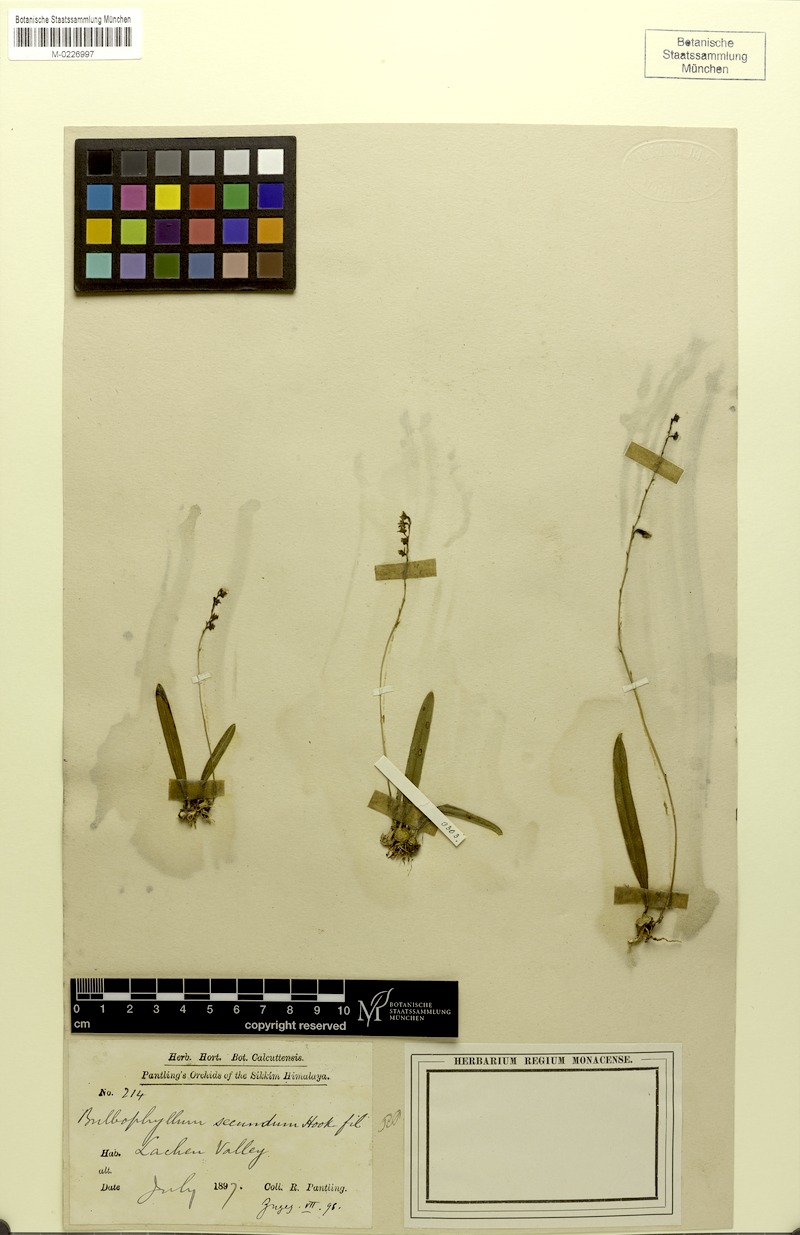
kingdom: Plantae
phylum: Tracheophyta
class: Liliopsida
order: Asparagales
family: Orchidaceae
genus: Bulbophyllum
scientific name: Bulbophyllum secundum
